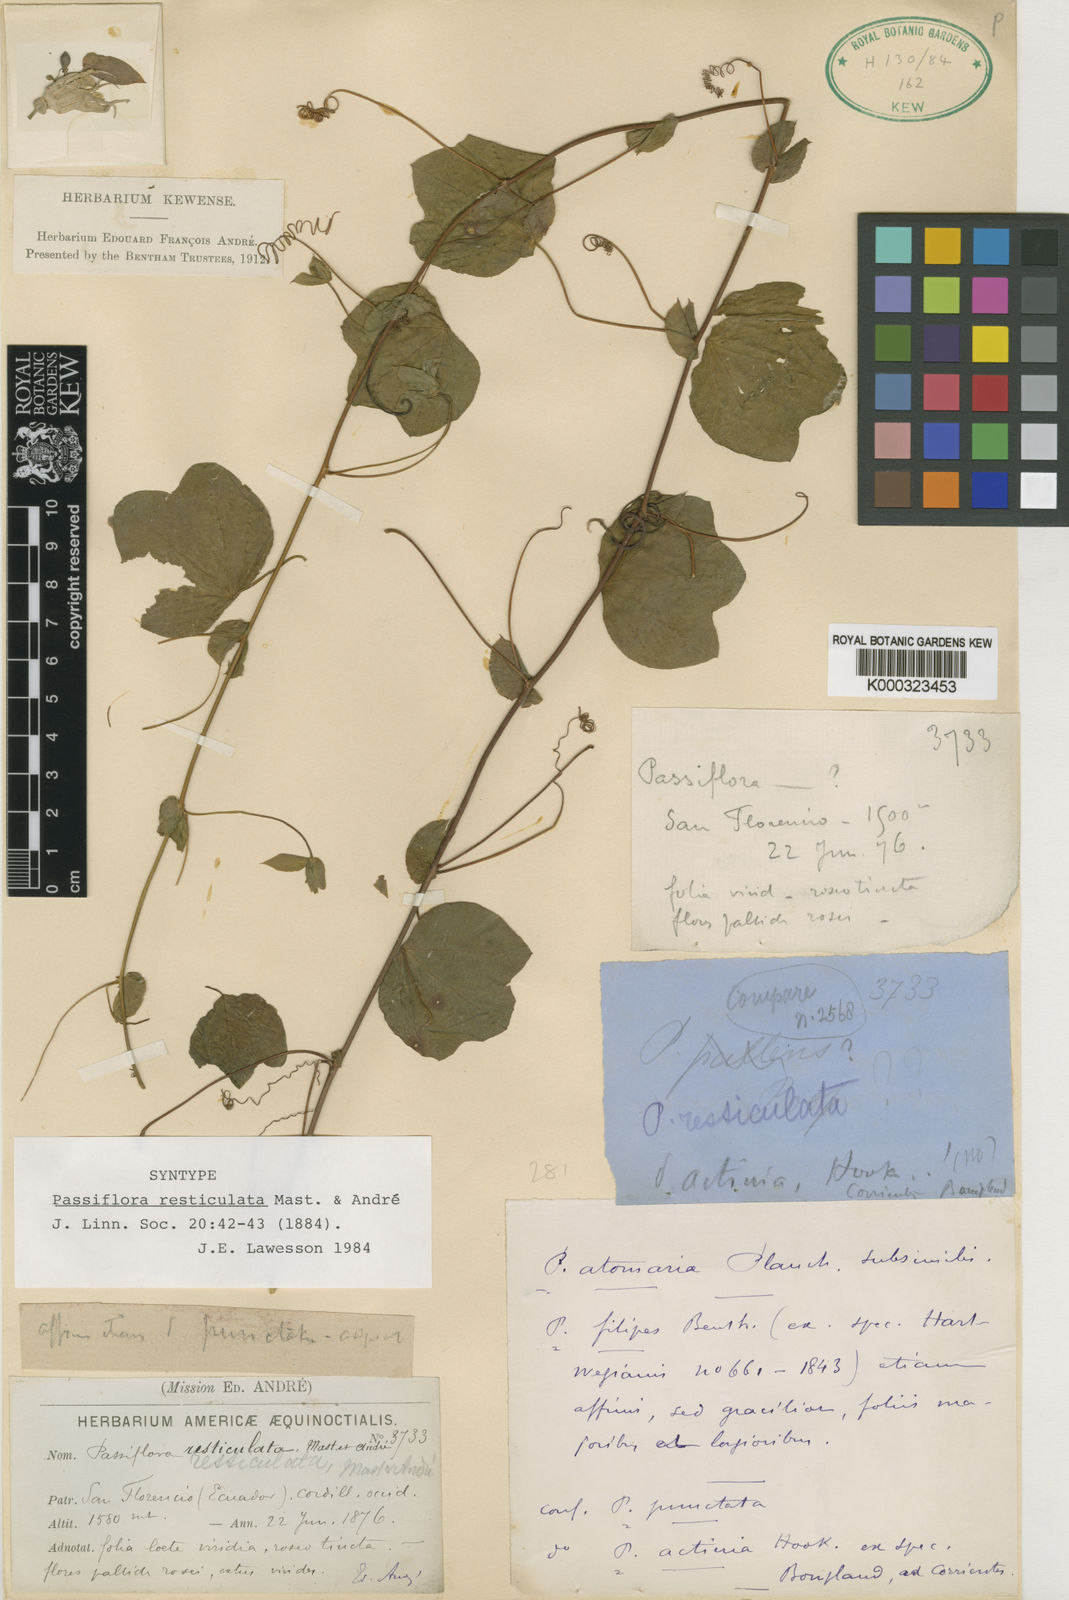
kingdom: Plantae
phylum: Tracheophyta
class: Magnoliopsida
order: Malpighiales
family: Passifloraceae
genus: Passiflora
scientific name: Passiflora resticulata
